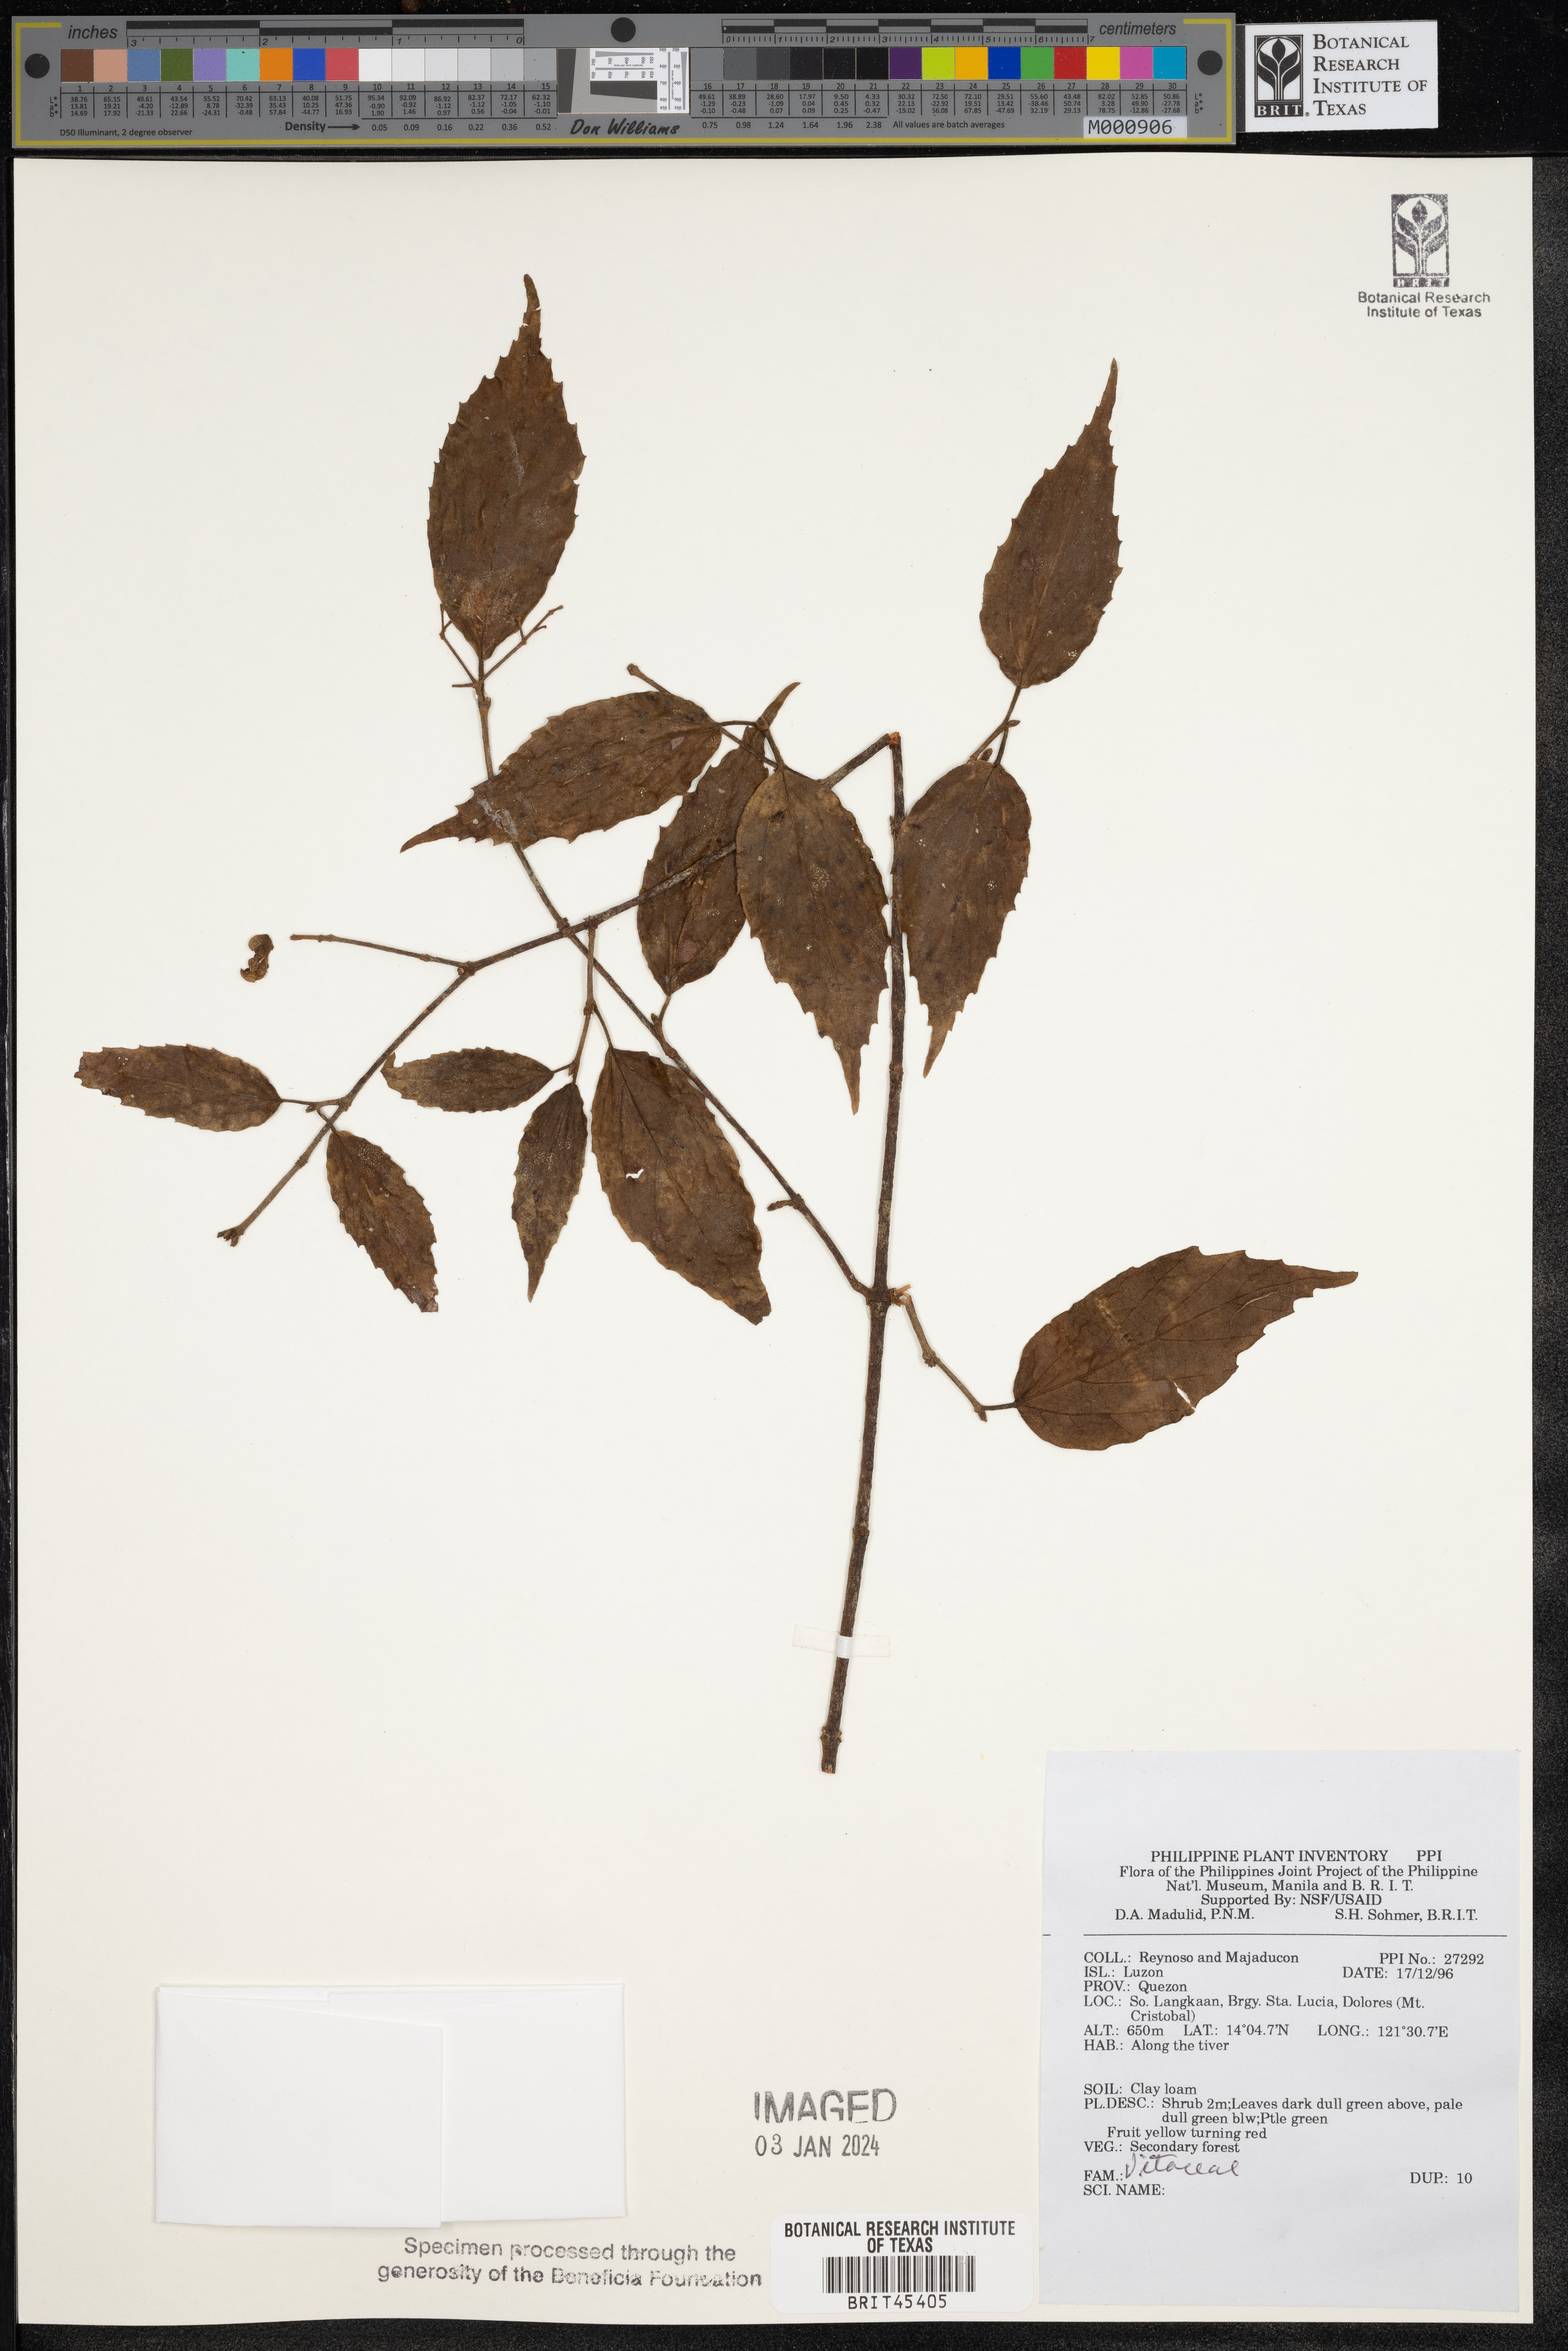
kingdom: Plantae
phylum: Tracheophyta
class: Magnoliopsida
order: Vitales
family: Vitaceae
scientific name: Vitaceae
